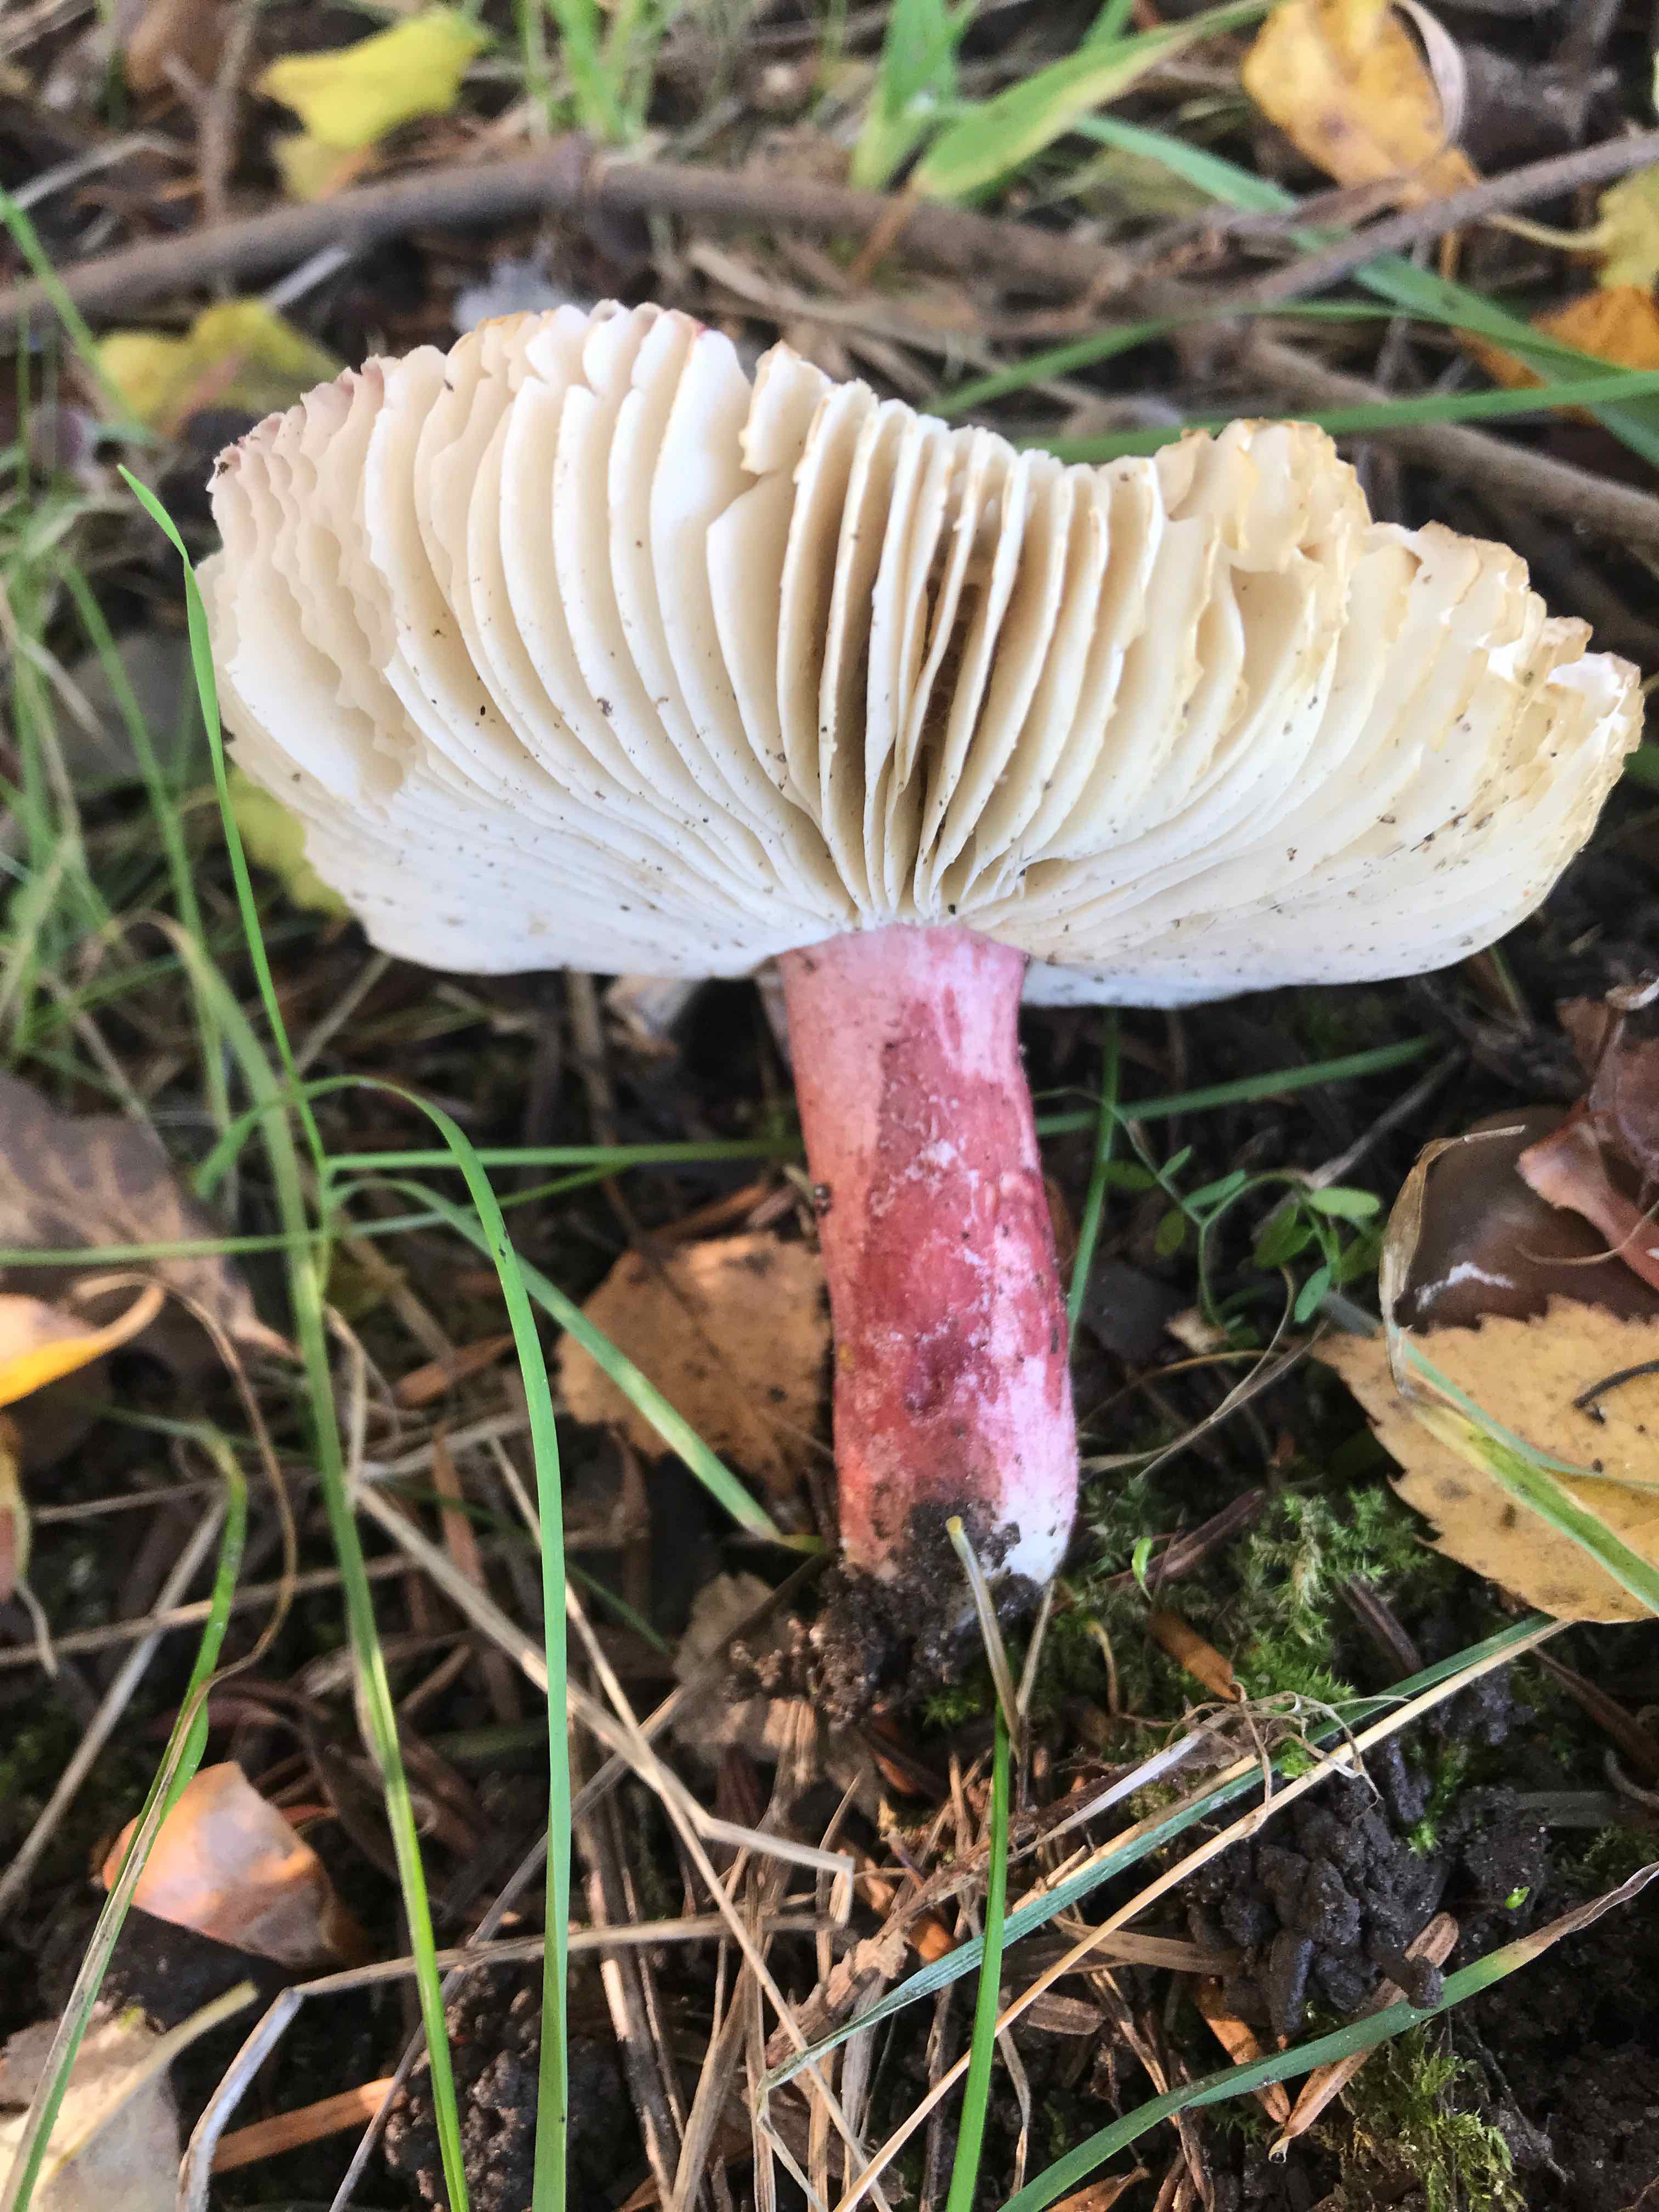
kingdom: Fungi
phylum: Basidiomycota
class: Agaricomycetes
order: Russulales
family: Russulaceae
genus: Russula
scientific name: Russula queletii
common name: Quélets skørhat
